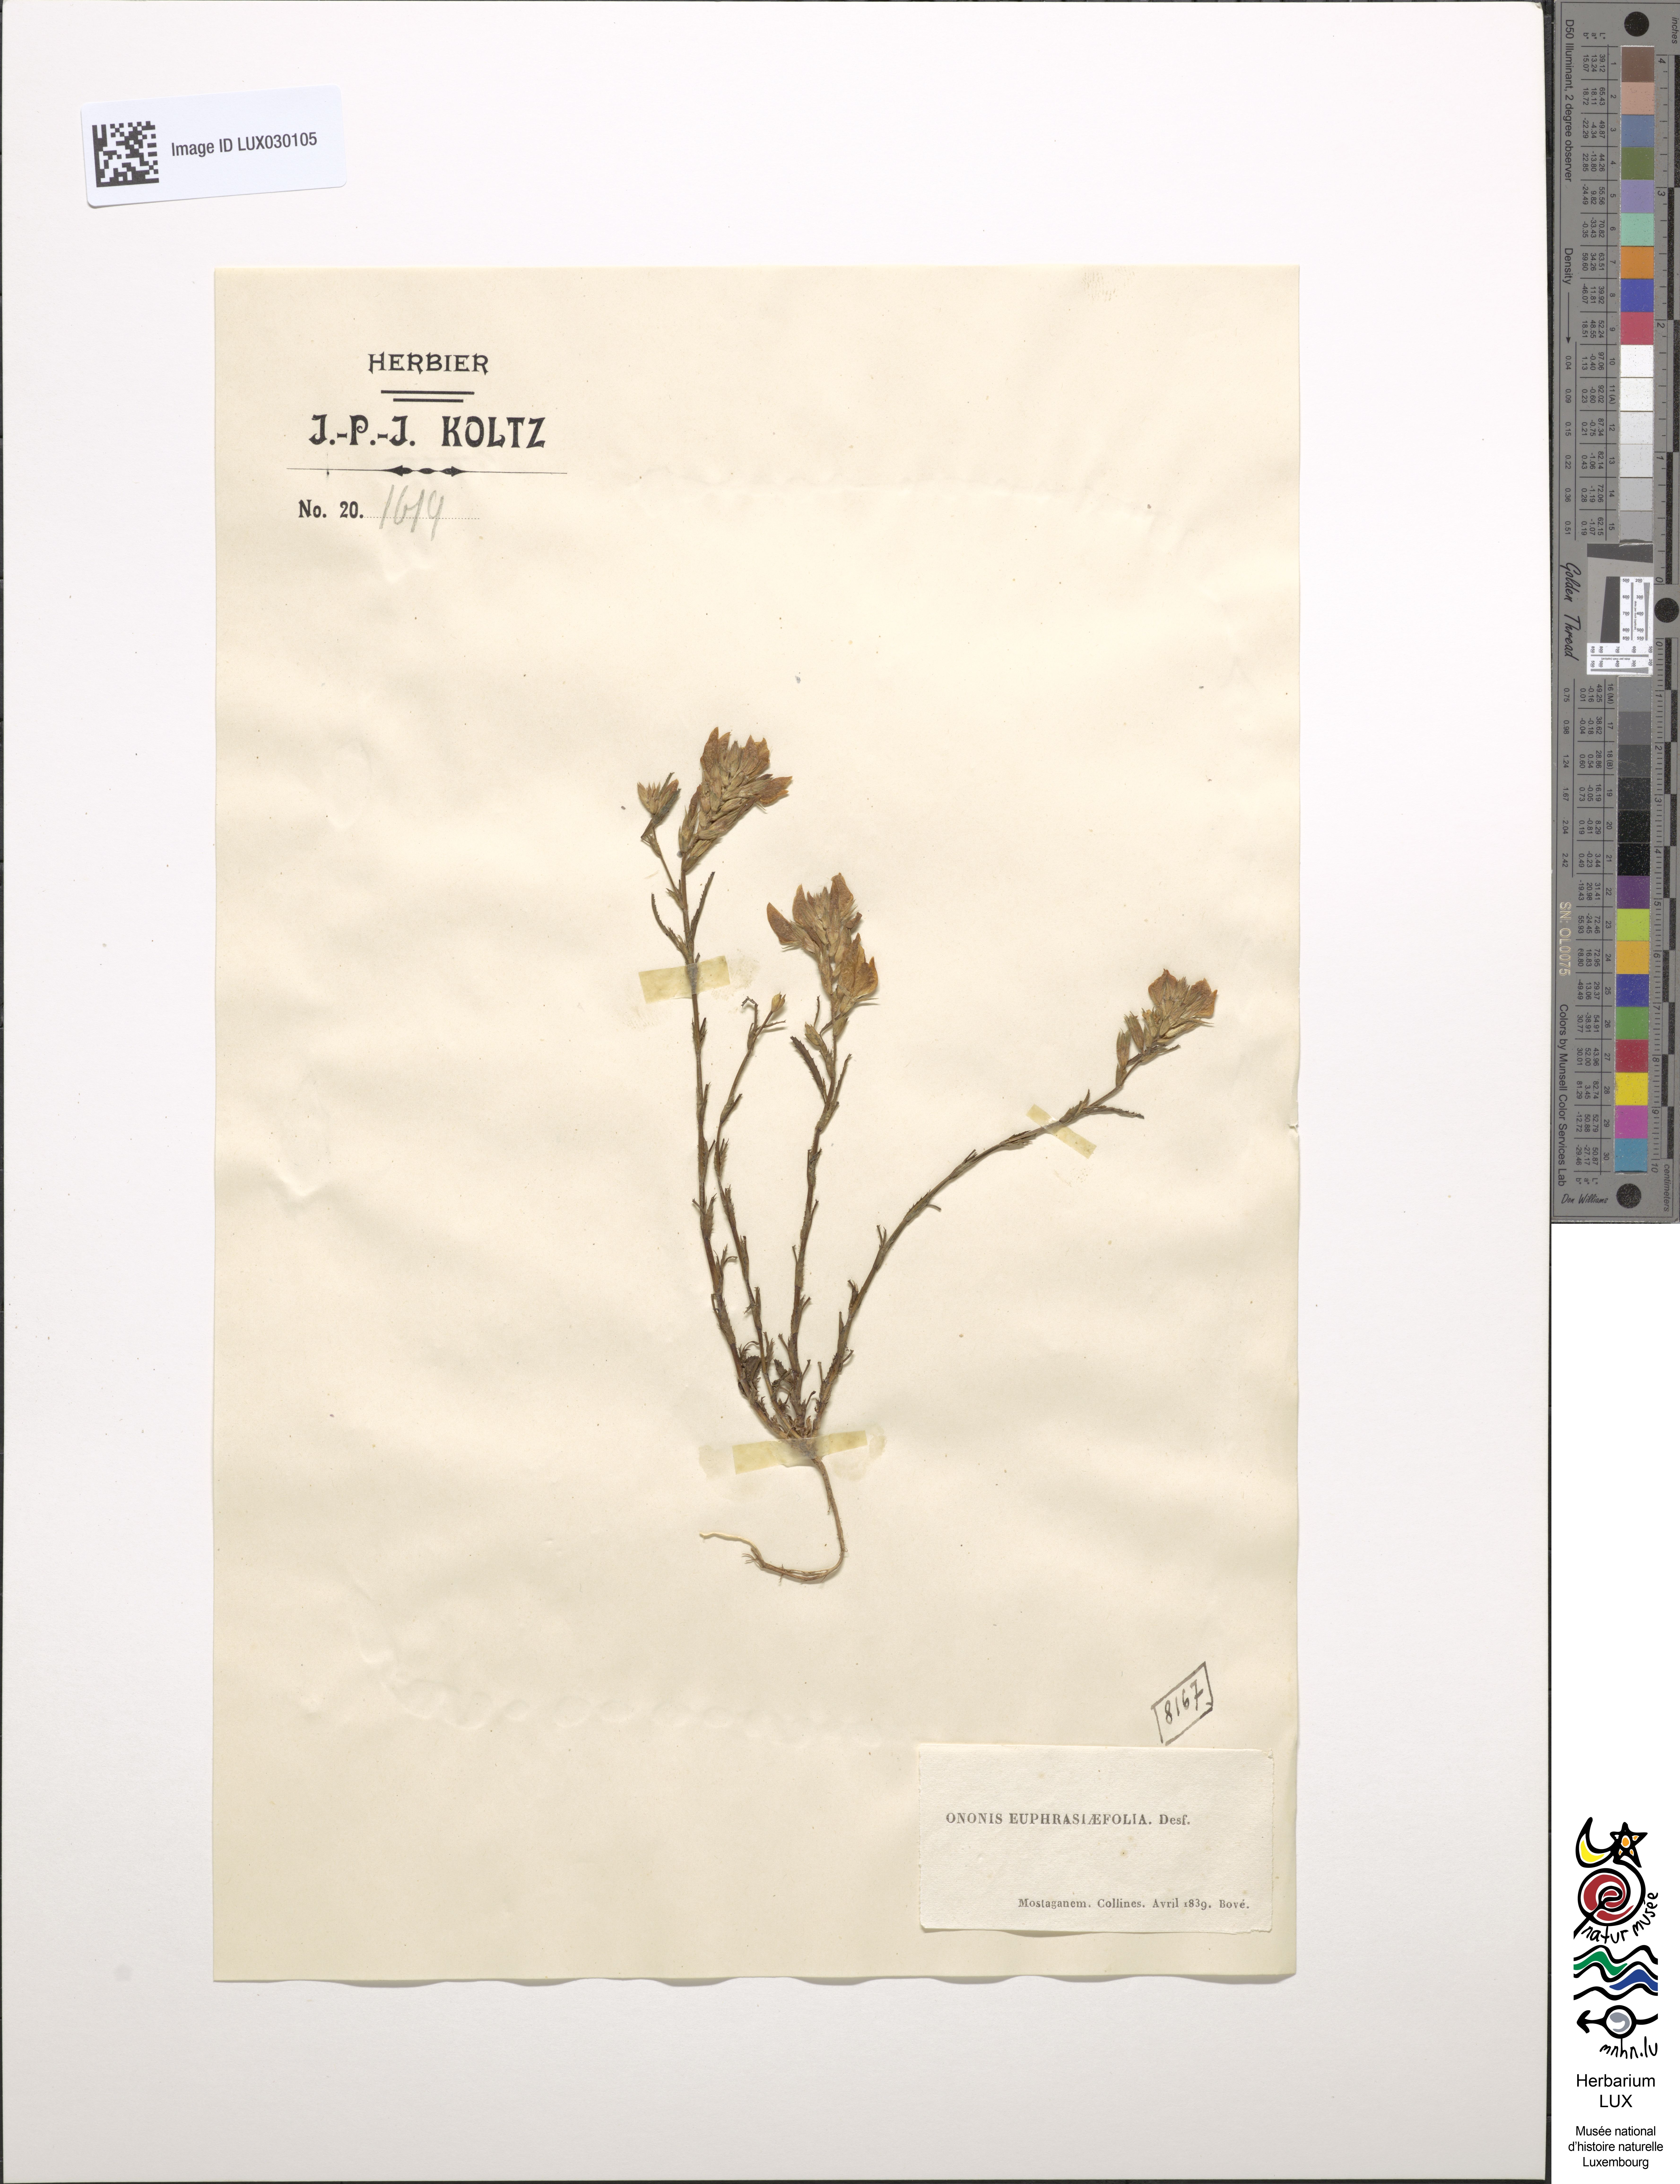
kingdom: Plantae
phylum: Tracheophyta
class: Magnoliopsida
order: Fabales
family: Fabaceae
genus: Ononis
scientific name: Ononis euphrasiifolia
